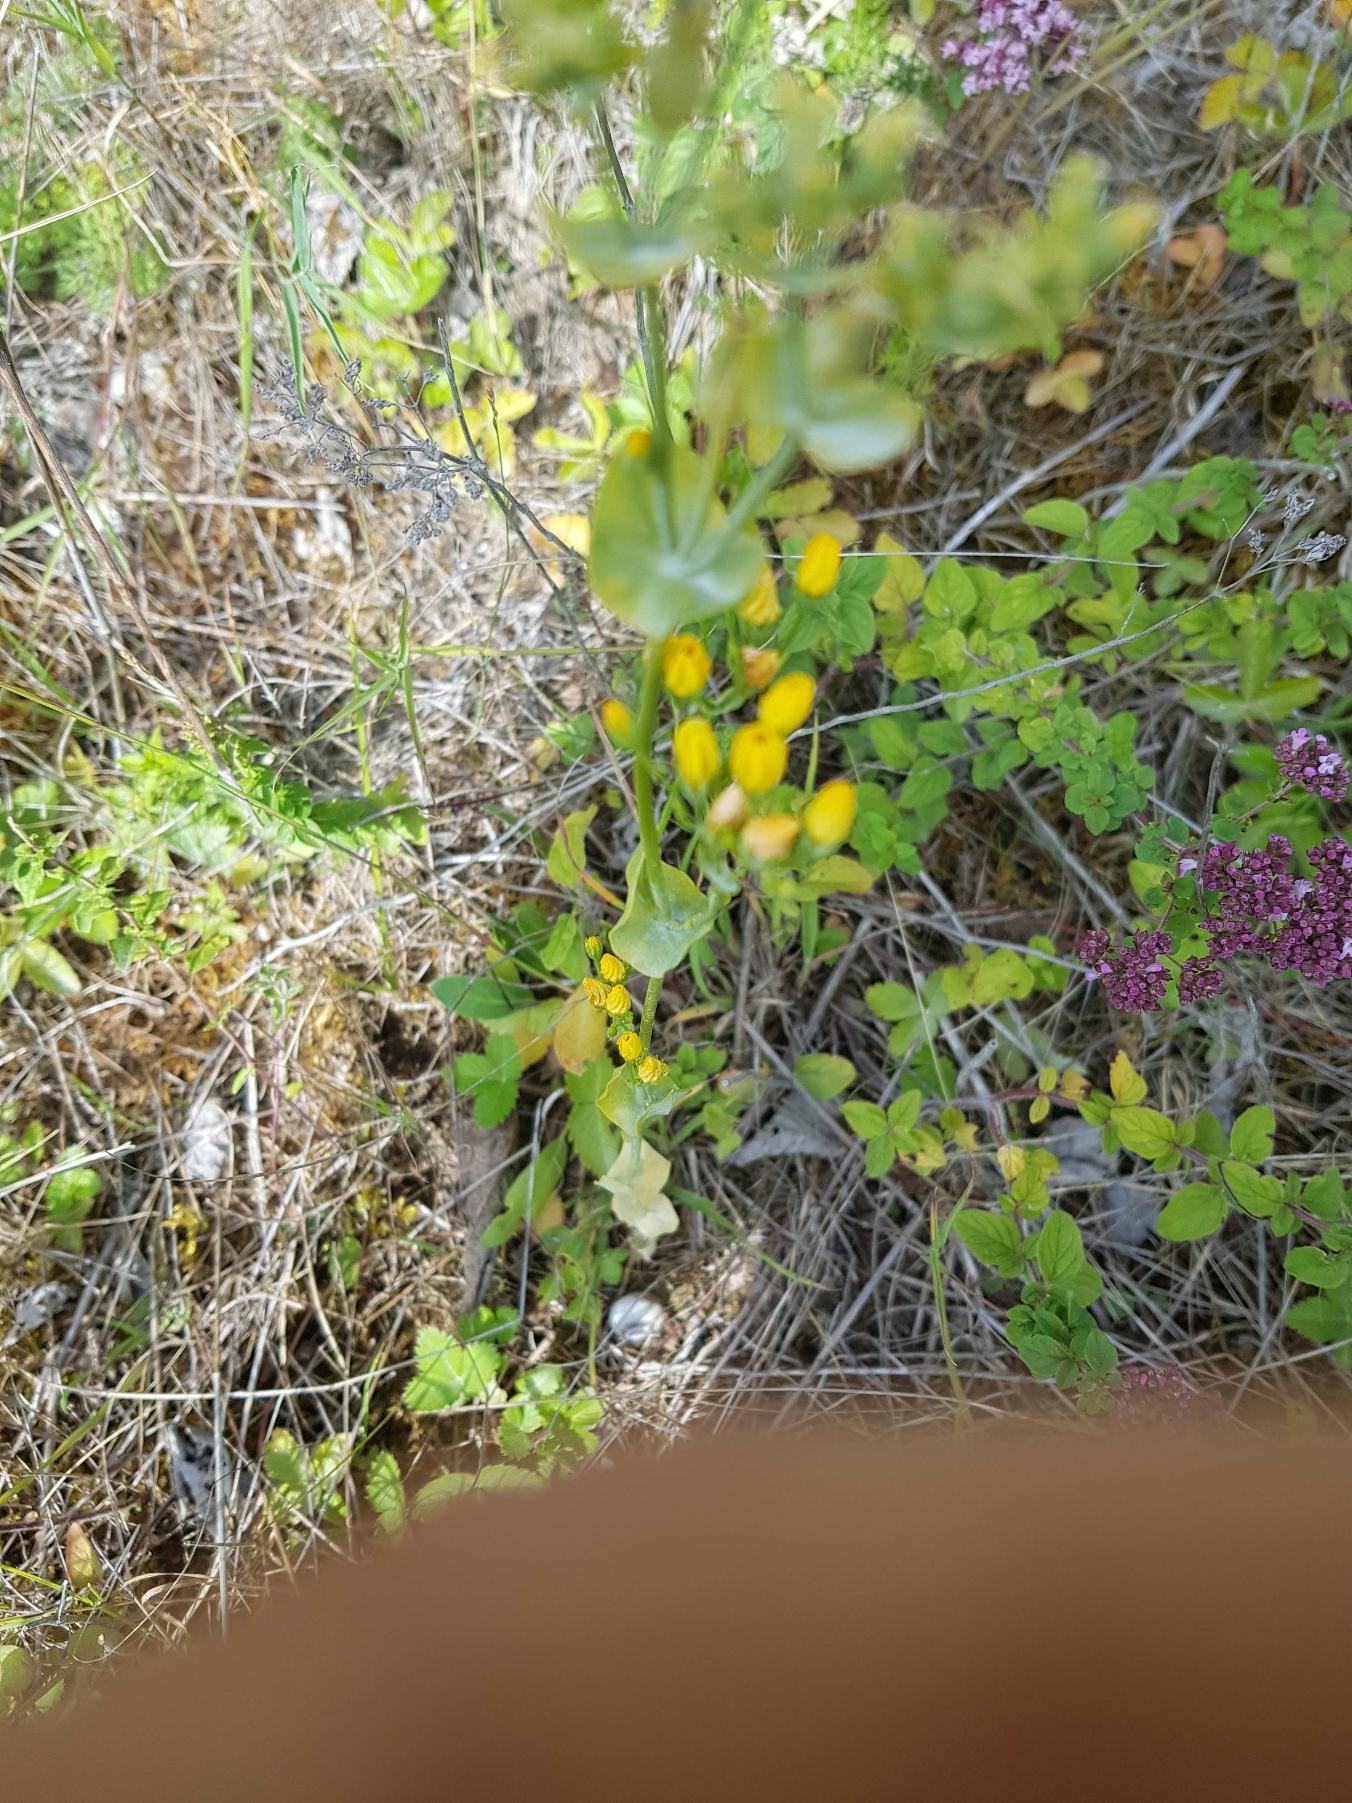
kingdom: Plantae
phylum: Tracheophyta
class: Magnoliopsida
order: Gentianales
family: Gentianaceae
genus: Blackstonia
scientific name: Blackstonia perfoliata
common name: Almindelig gyldenurt
